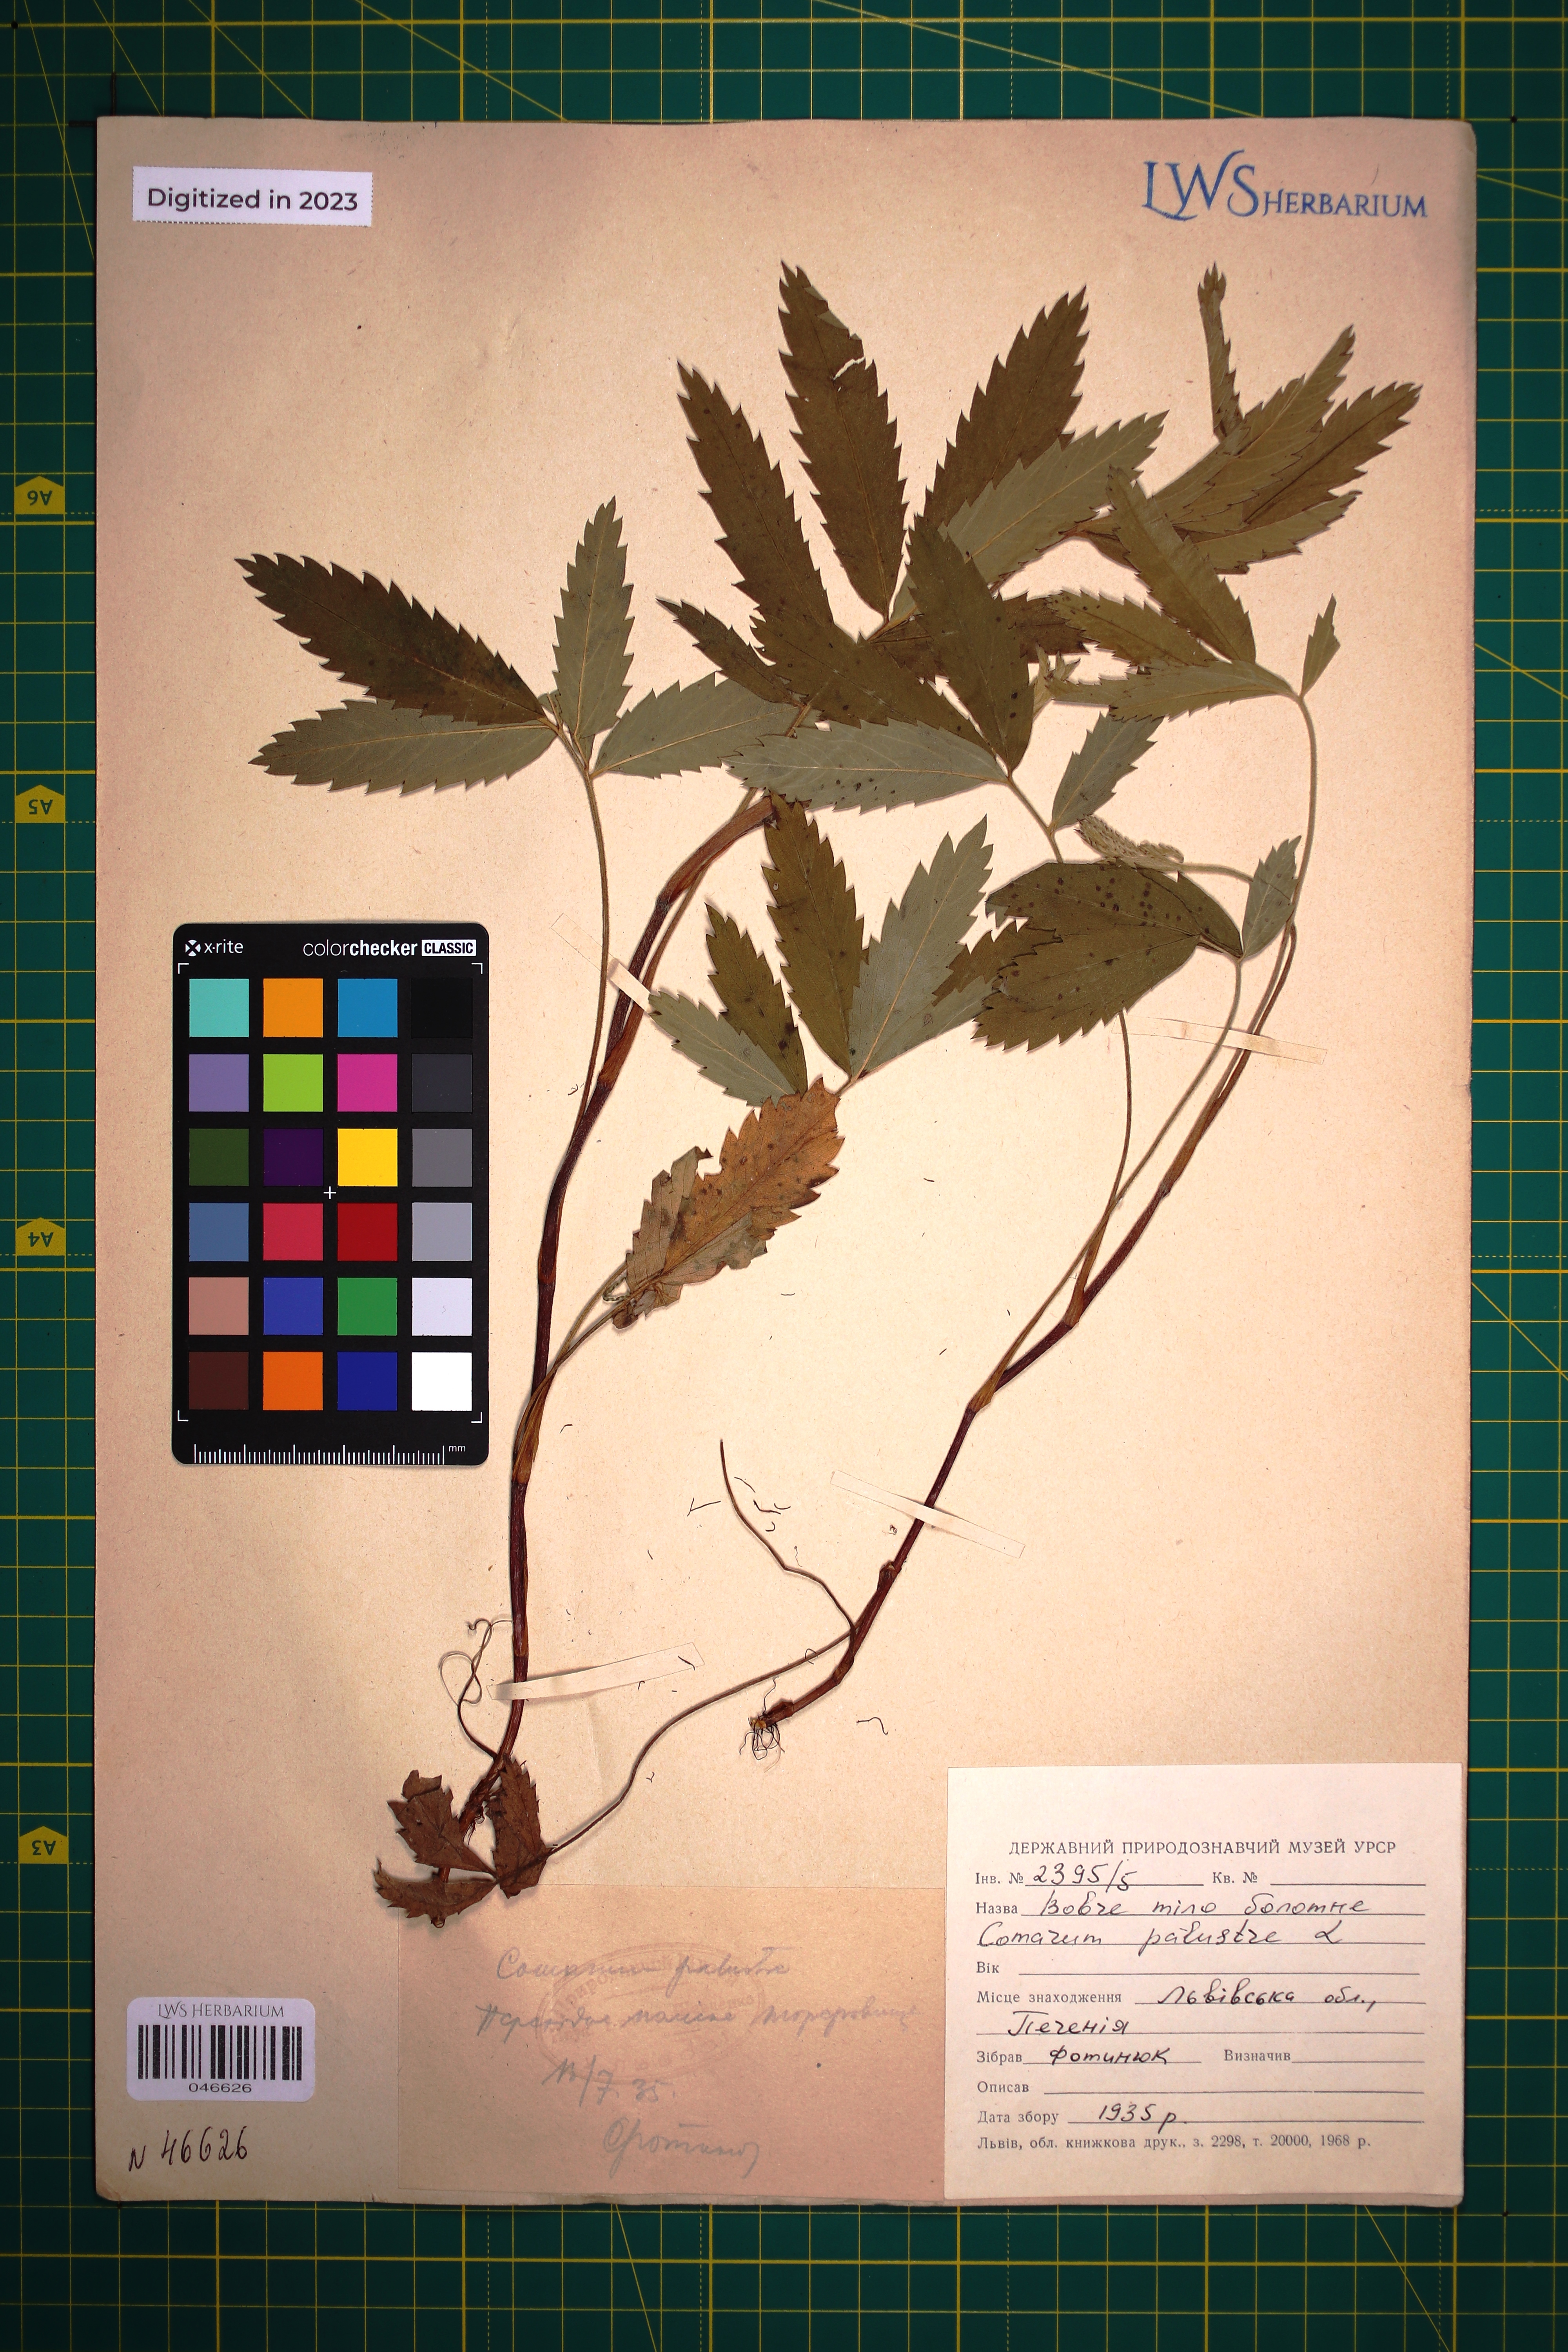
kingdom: Plantae
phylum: Tracheophyta
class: Magnoliopsida
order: Rosales
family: Rosaceae
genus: Comarum
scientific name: Comarum palustre
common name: Marsh cinquefoil
